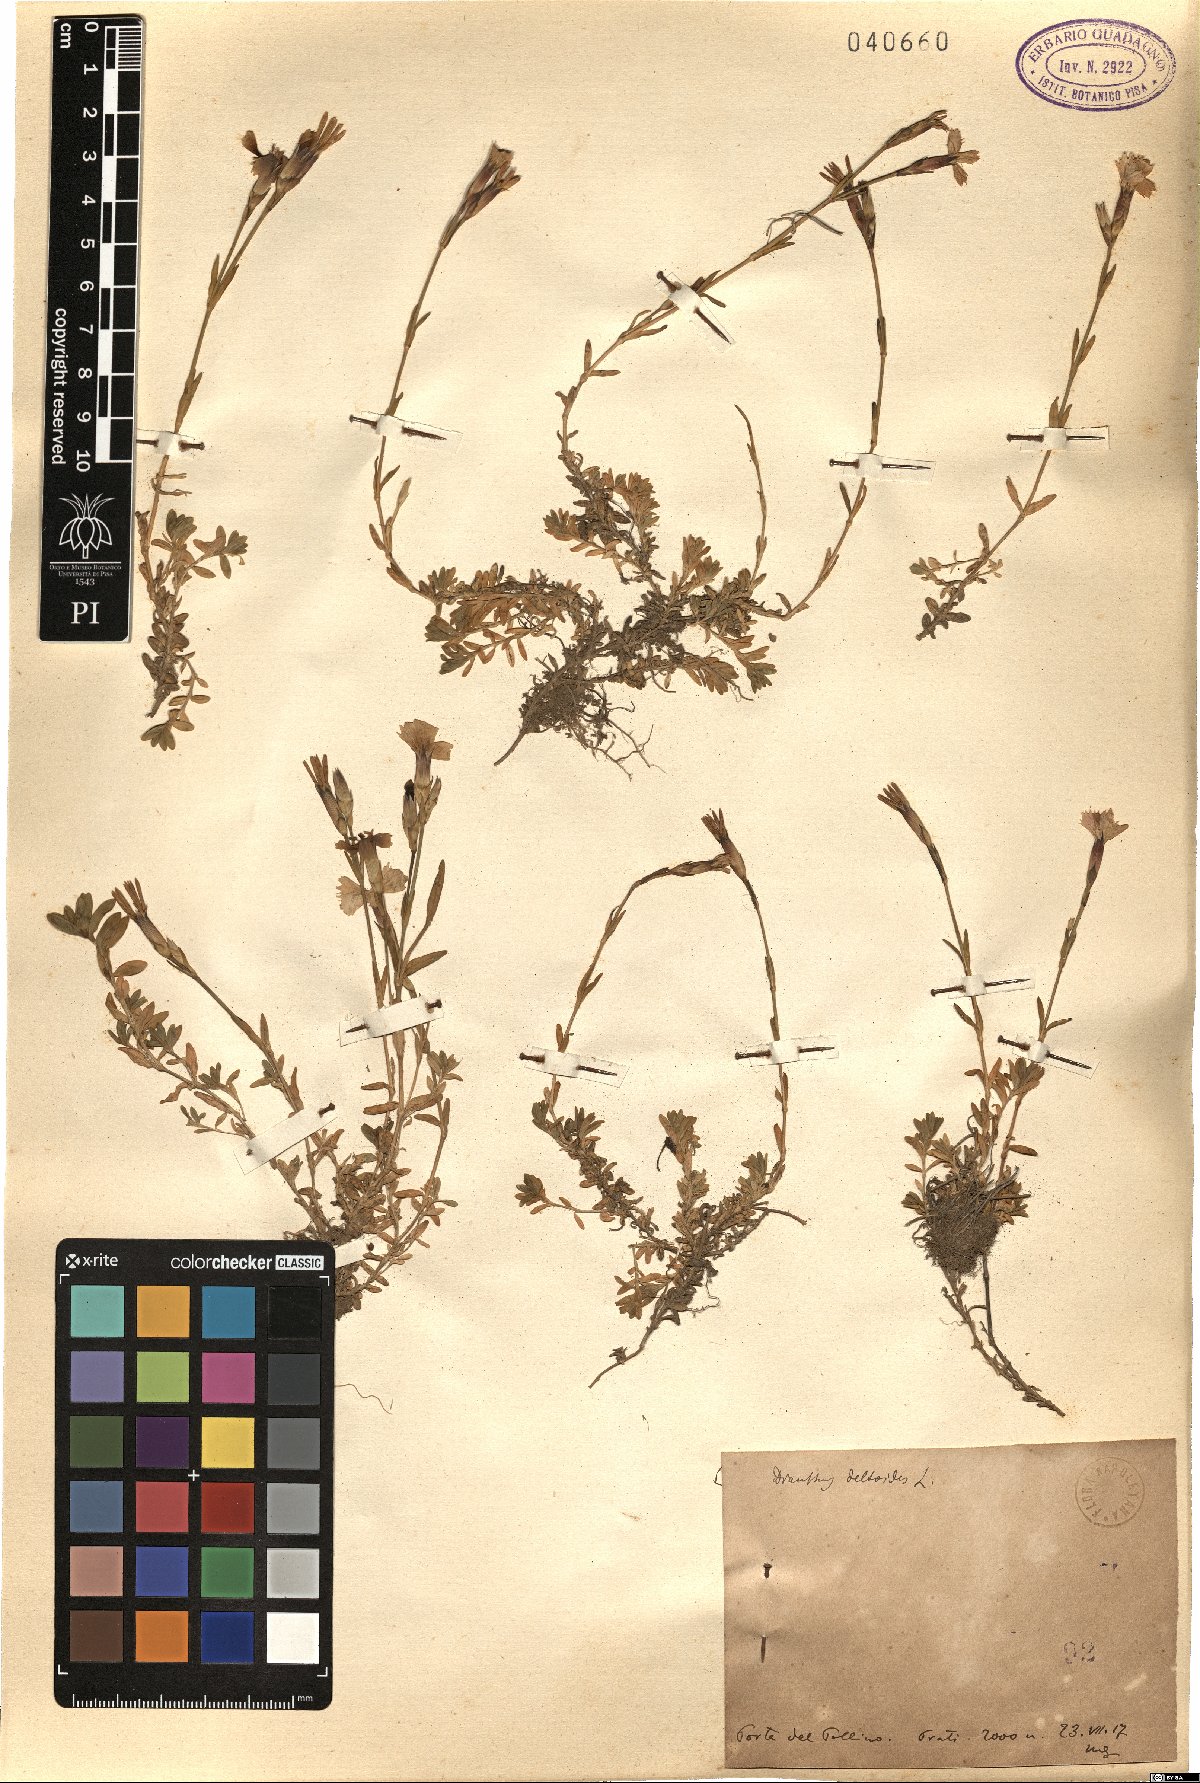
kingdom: Plantae
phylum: Tracheophyta
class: Magnoliopsida
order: Caryophyllales
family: Caryophyllaceae
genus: Dianthus
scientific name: Dianthus deltoides
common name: Maiden pink
